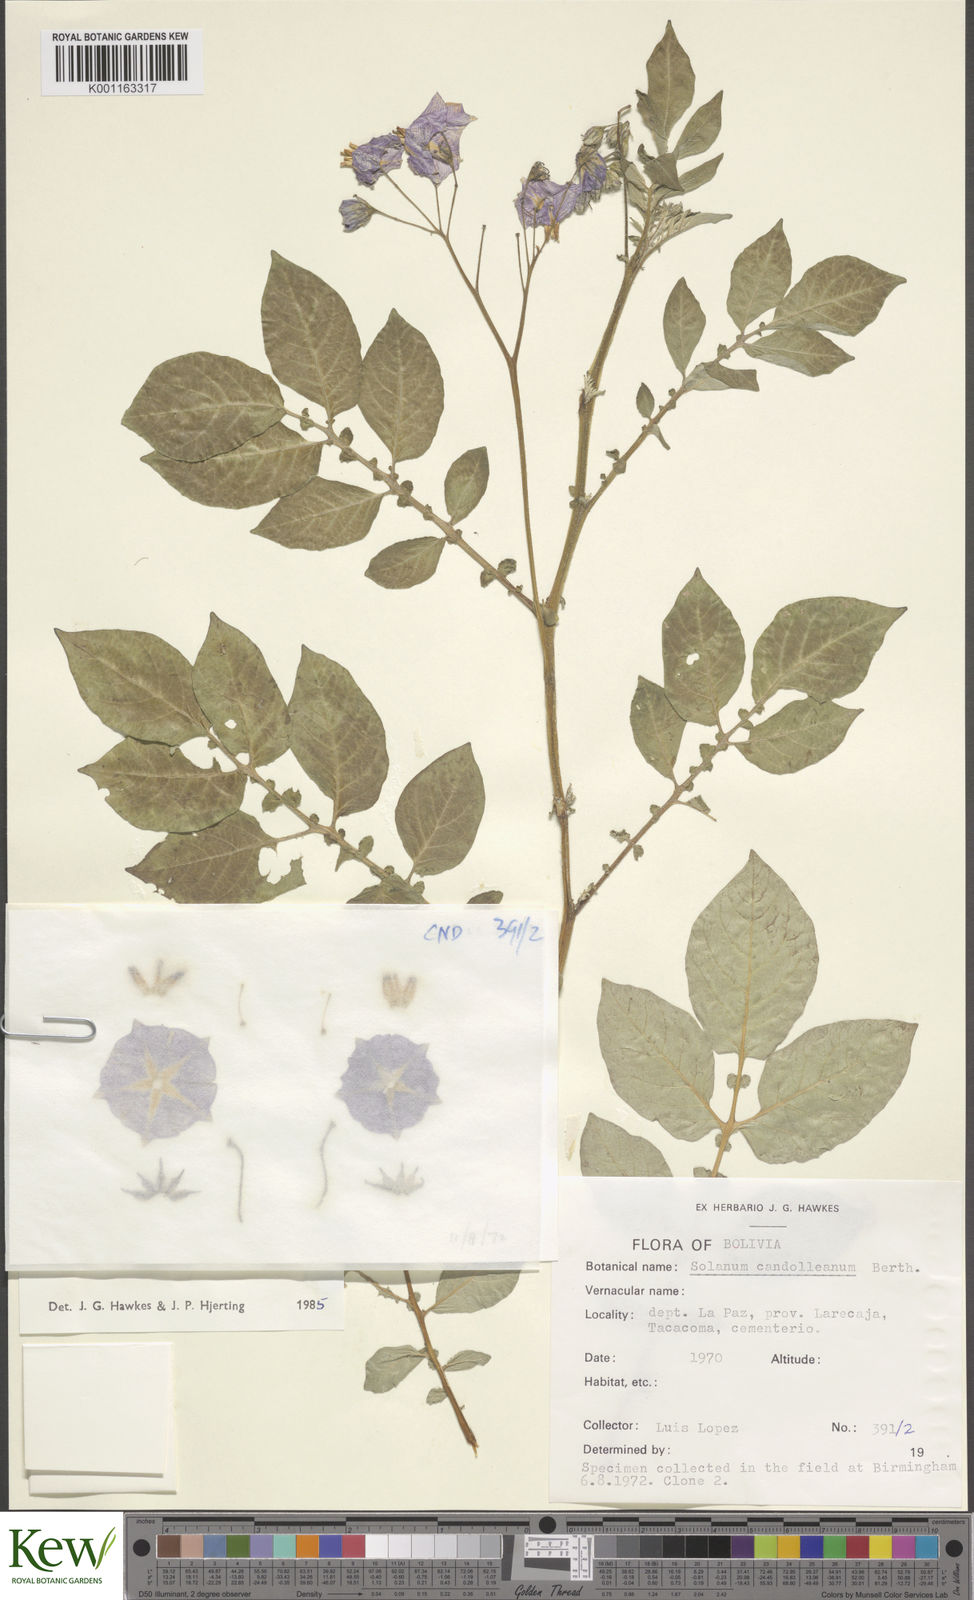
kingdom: Plantae
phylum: Tracheophyta
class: Magnoliopsida
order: Solanales
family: Solanaceae
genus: Solanum
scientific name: Solanum candolleanum
